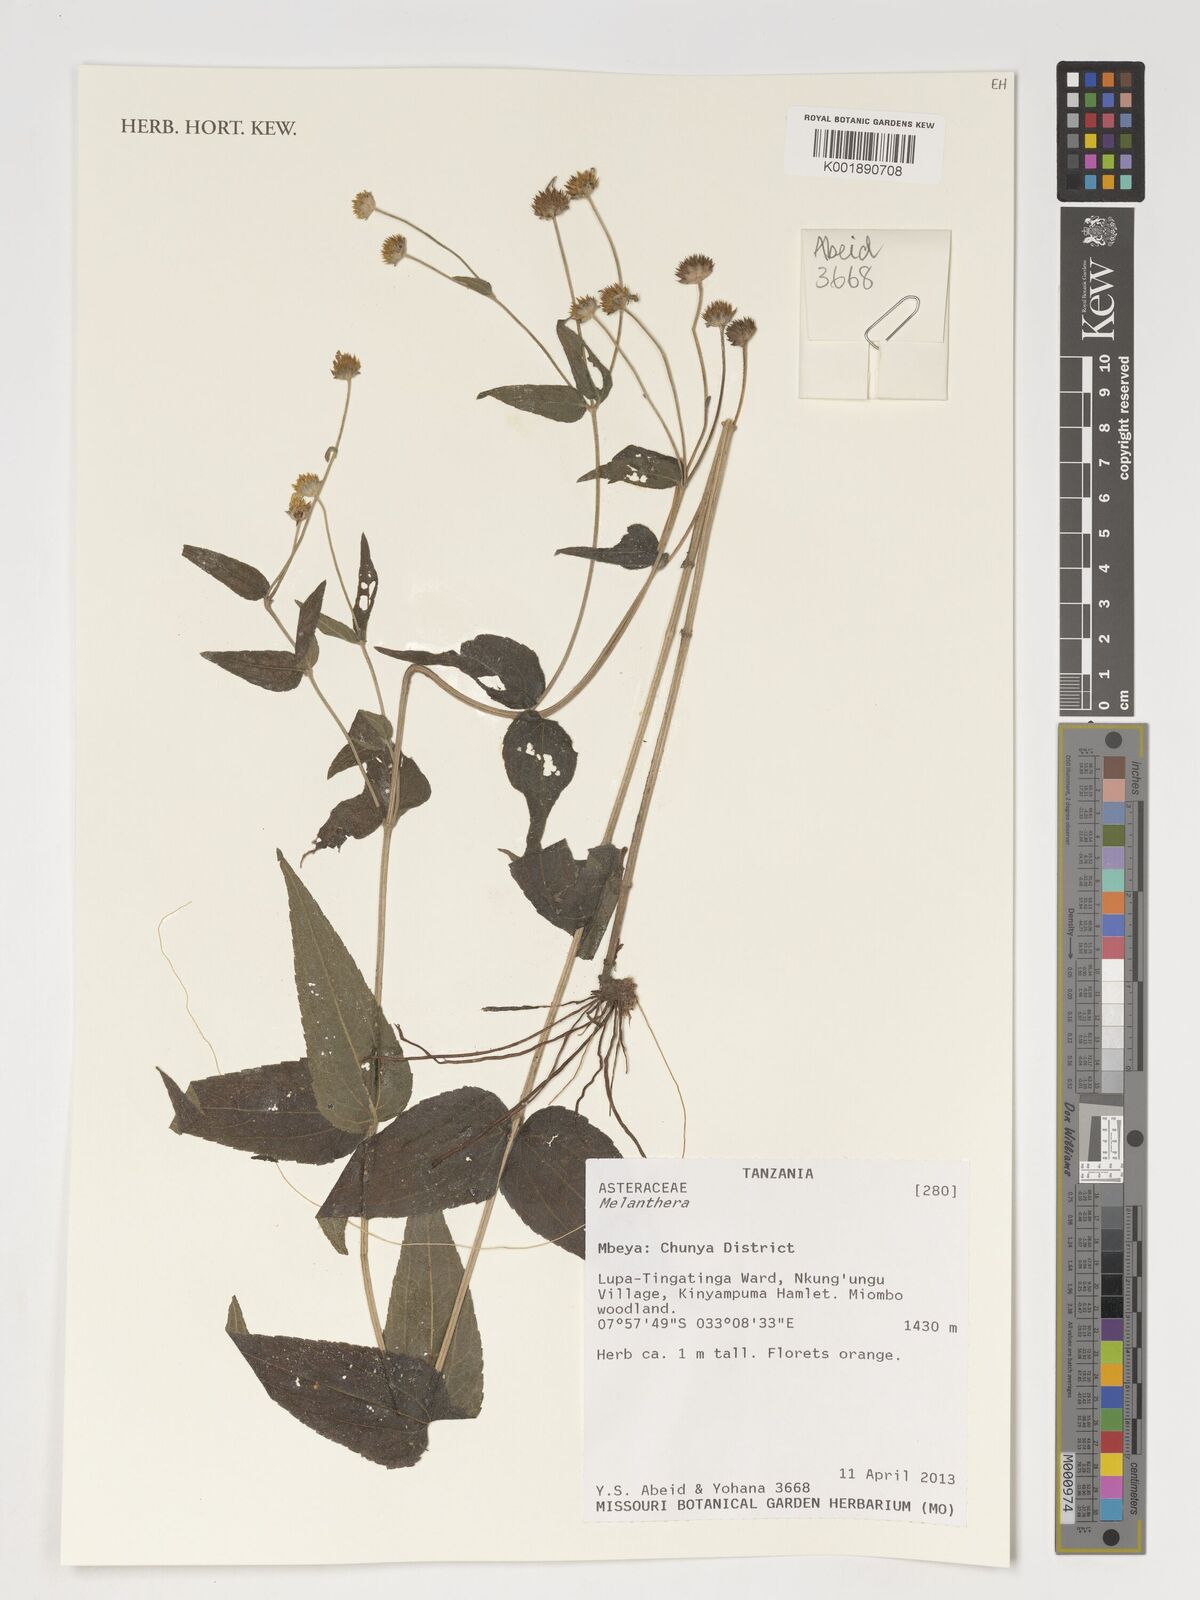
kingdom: Plantae
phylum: Tracheophyta
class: Magnoliopsida
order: Asterales
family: Asteraceae
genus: Melanthera
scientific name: Melanthera
